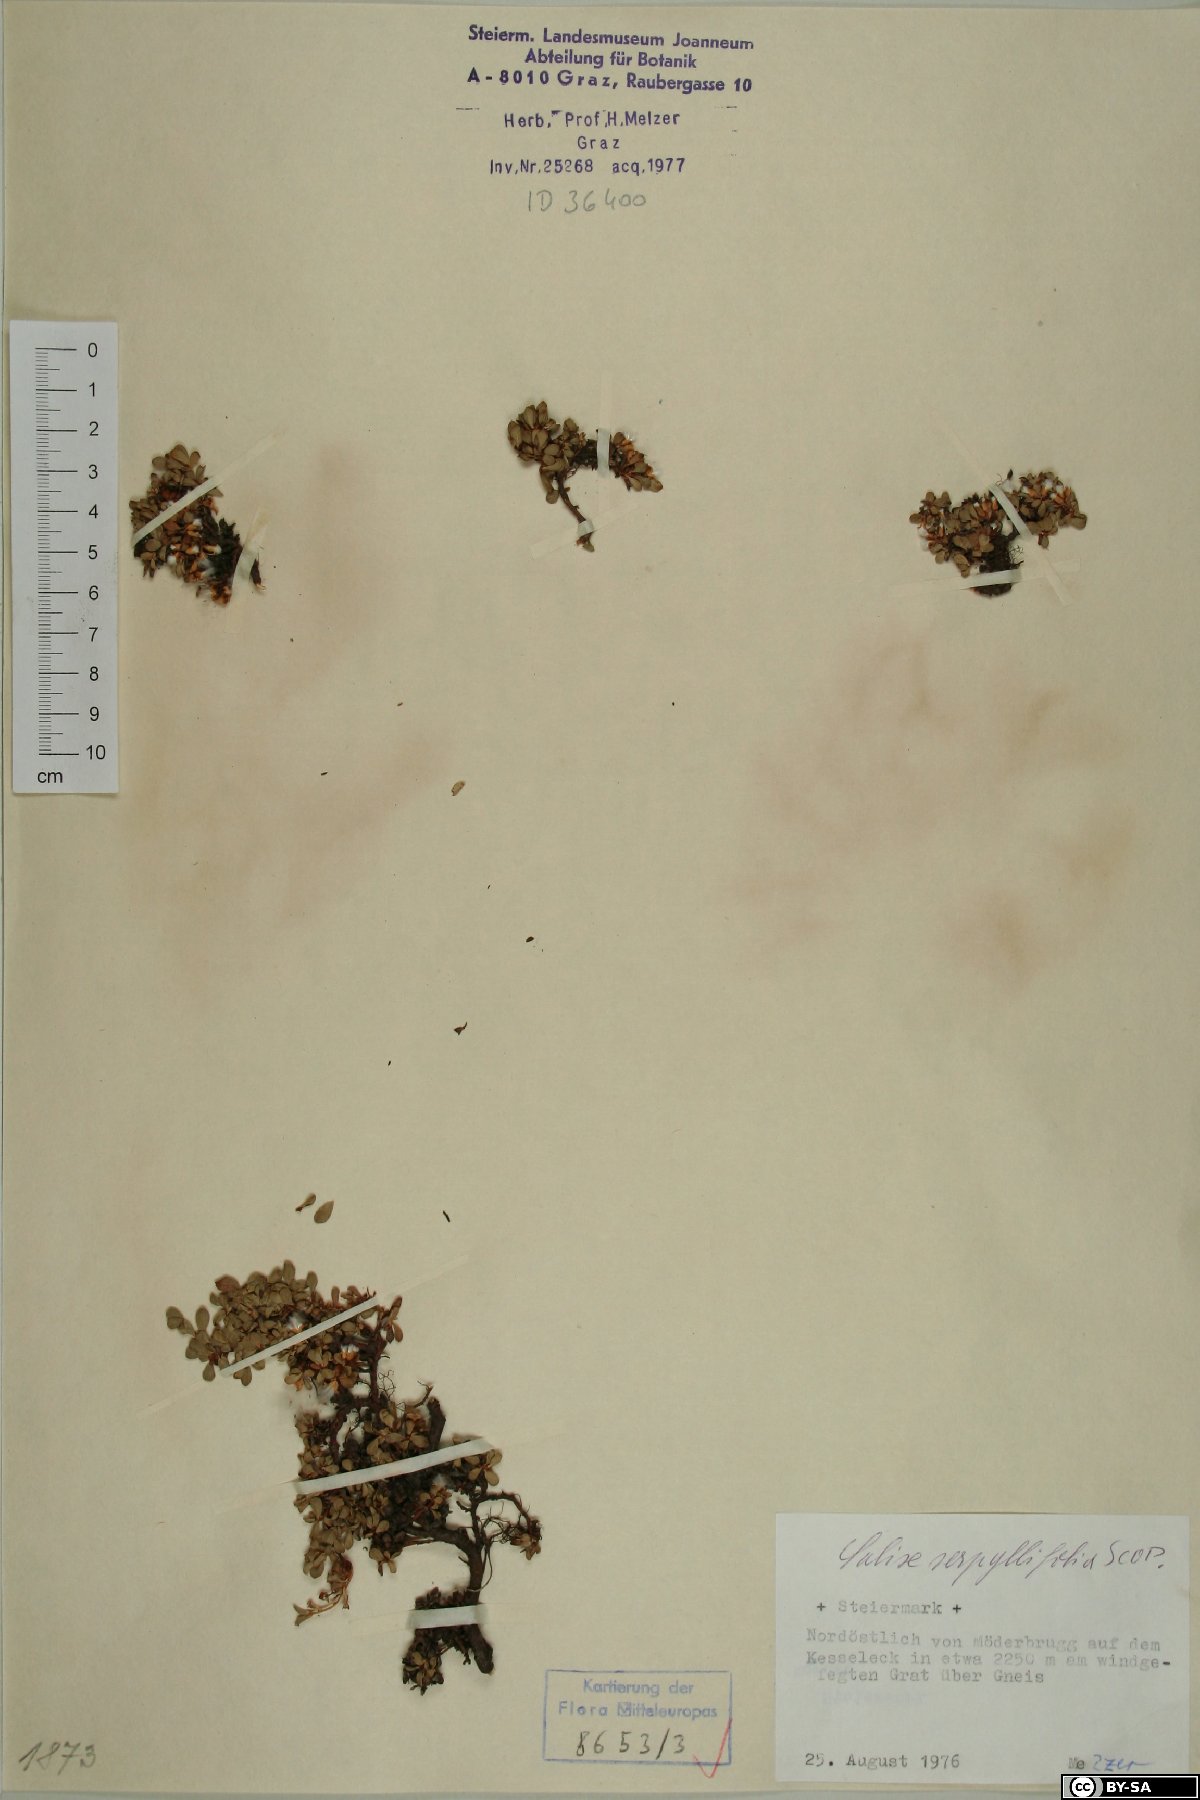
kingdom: Plantae
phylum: Tracheophyta
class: Magnoliopsida
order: Malpighiales
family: Salicaceae
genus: Salix
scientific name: Salix serpillifolia
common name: Thyme-leaf willow
